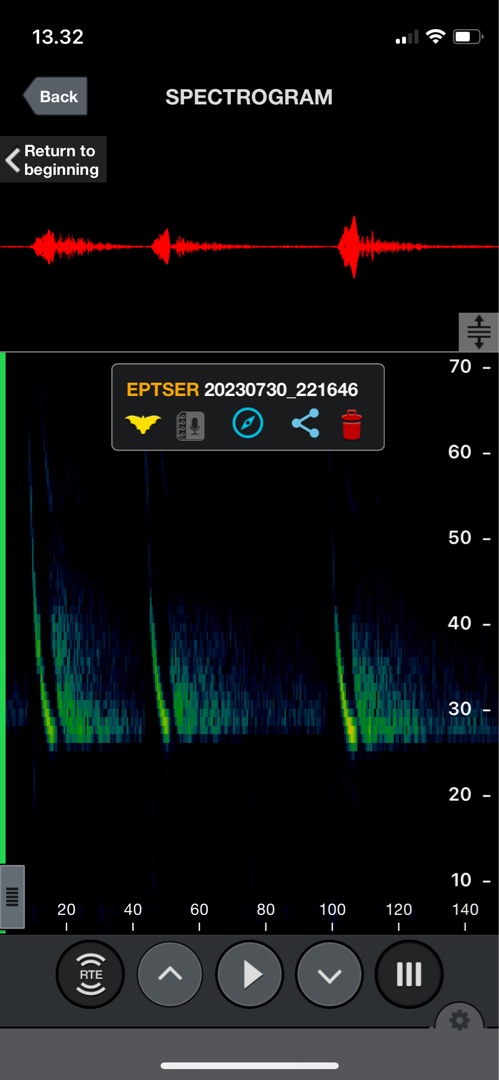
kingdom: Animalia
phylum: Chordata
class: Mammalia
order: Chiroptera
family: Vespertilionidae
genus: Eptesicus
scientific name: Eptesicus serotinus
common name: Sydflagermus
